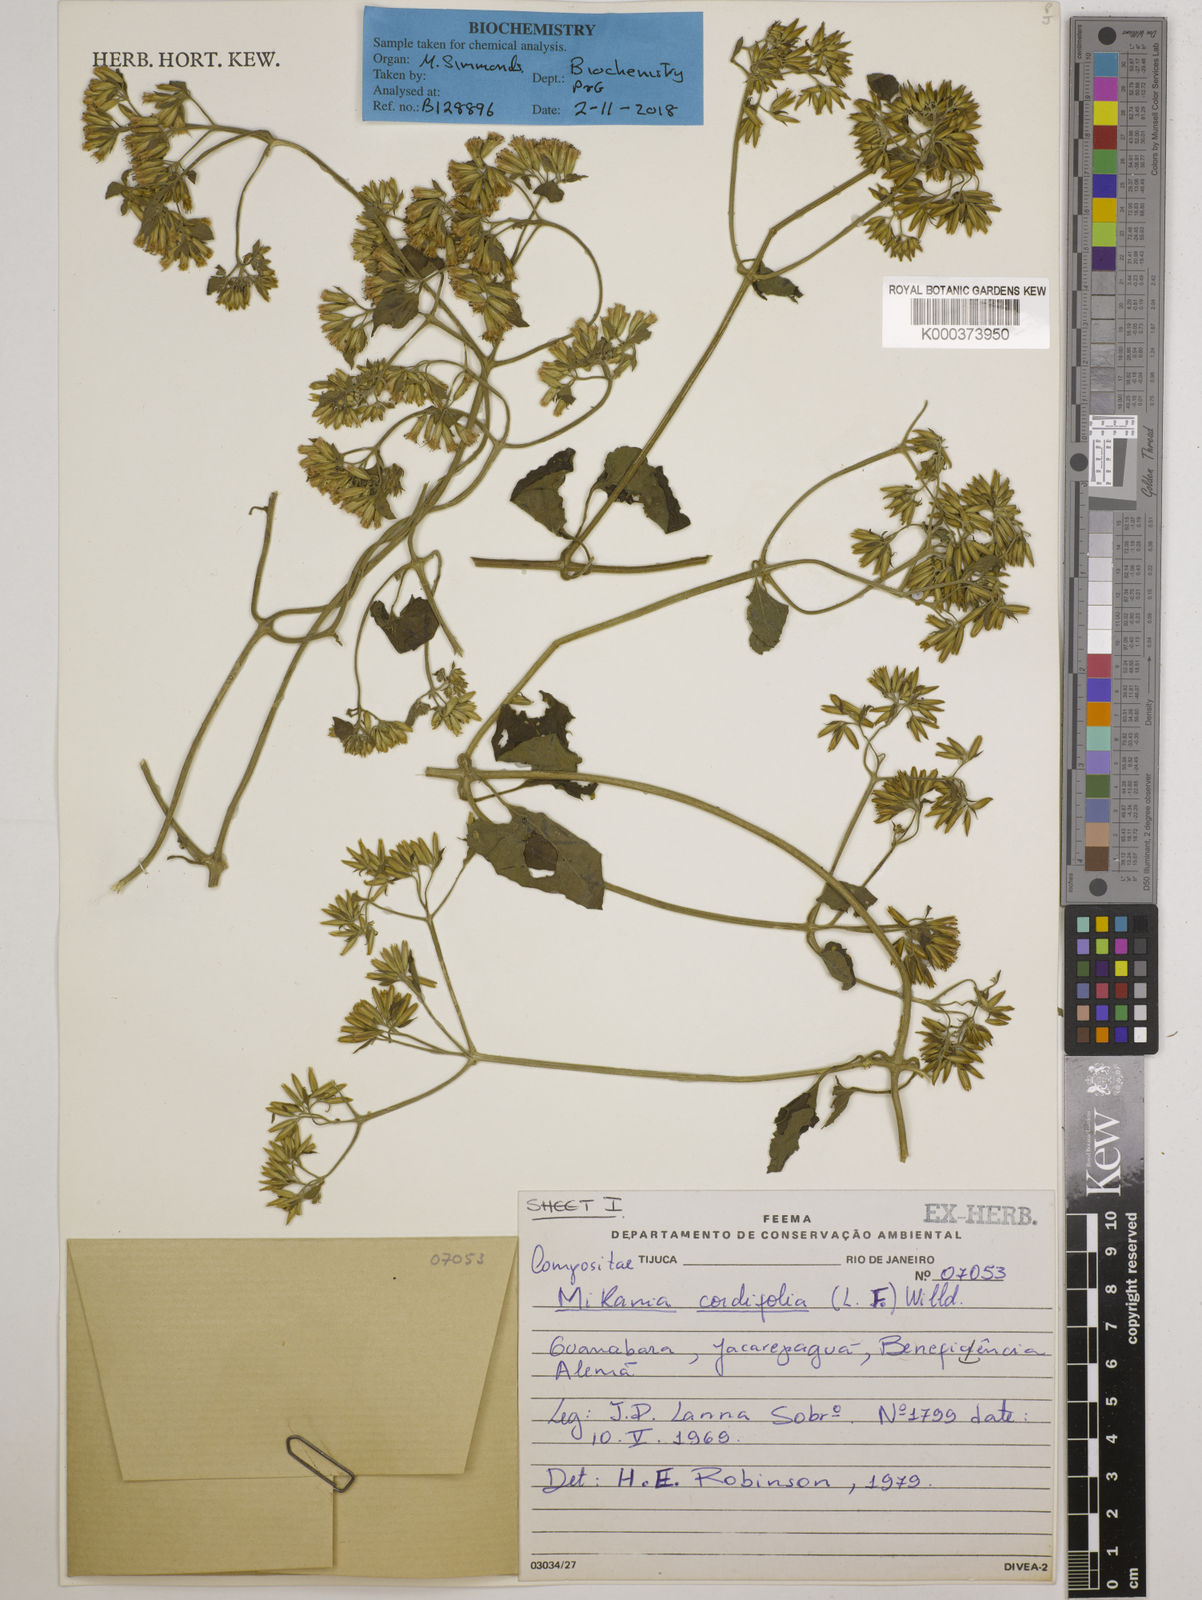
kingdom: Plantae
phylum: Tracheophyta
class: Magnoliopsida
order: Asterales
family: Asteraceae
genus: Mikania
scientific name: Mikania cordifolia
